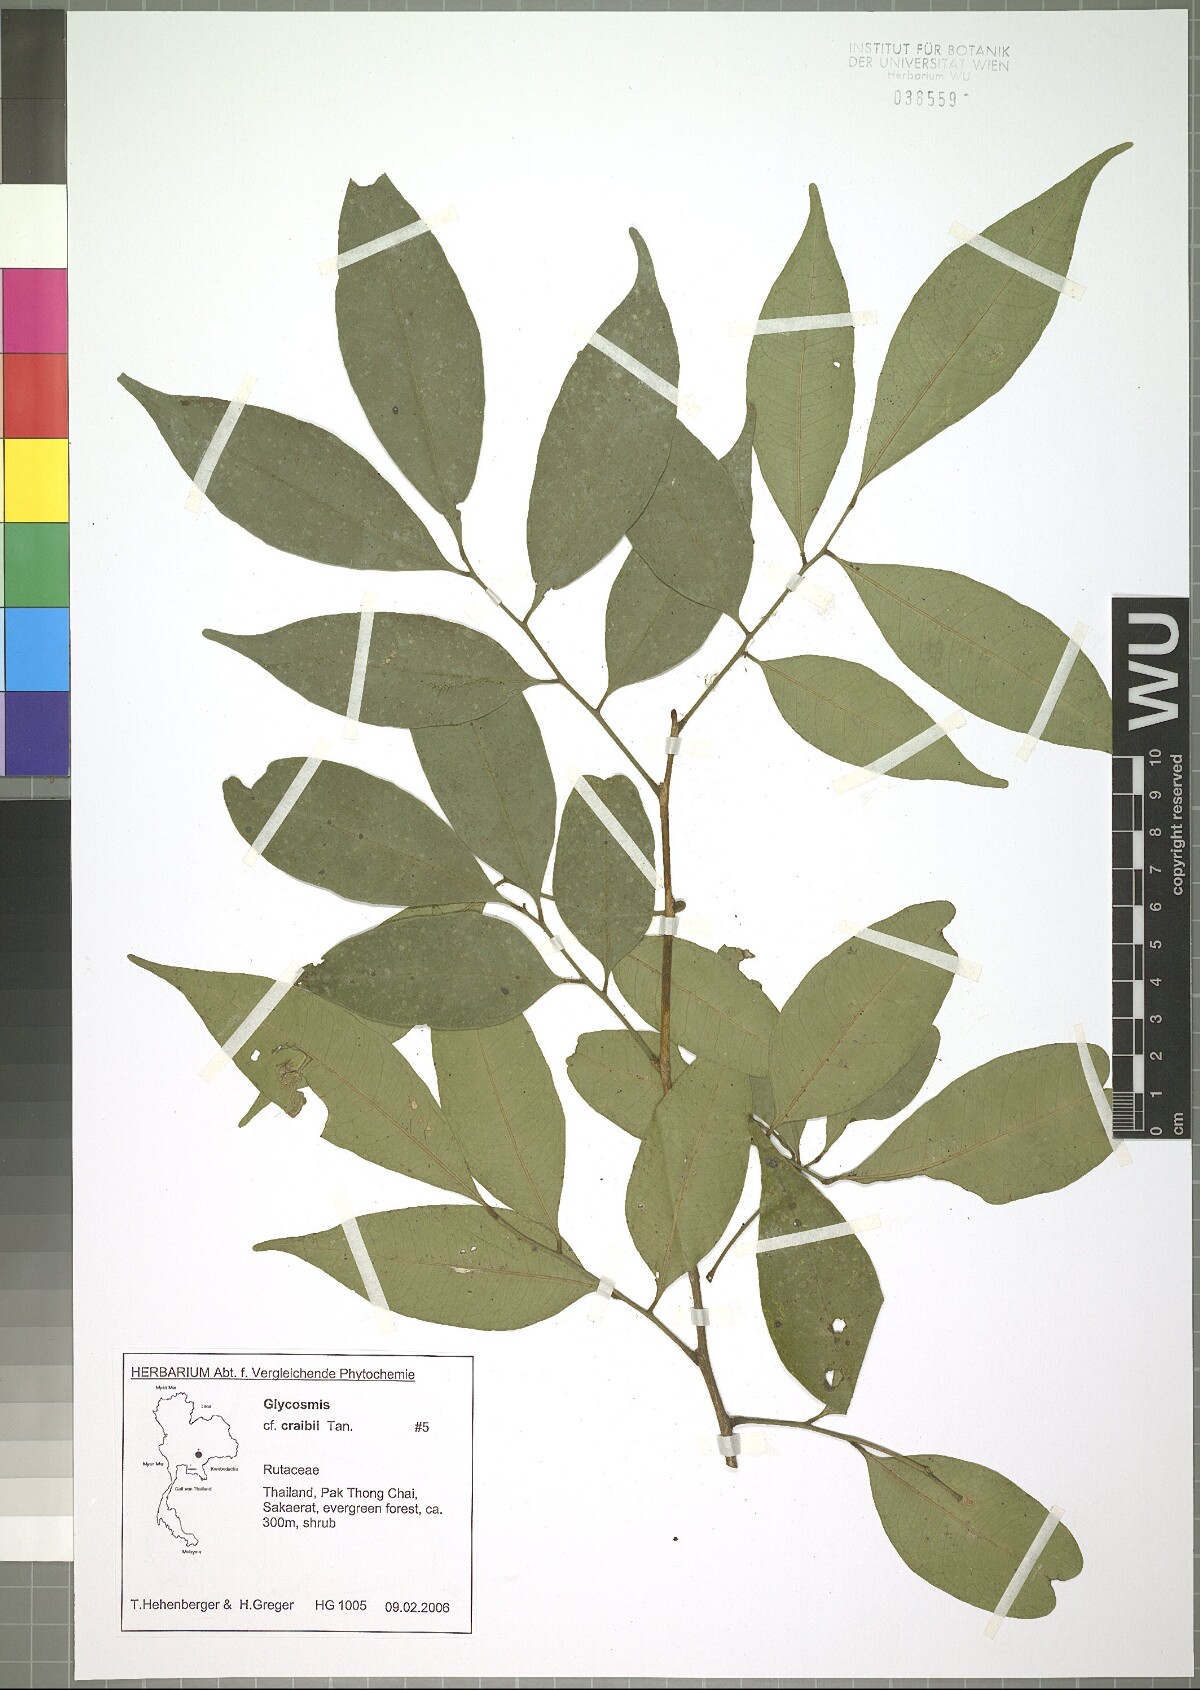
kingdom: Plantae
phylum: Tracheophyta
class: Magnoliopsida
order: Sapindales
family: Rutaceae
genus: Glycosmis
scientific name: Glycosmis craibii
